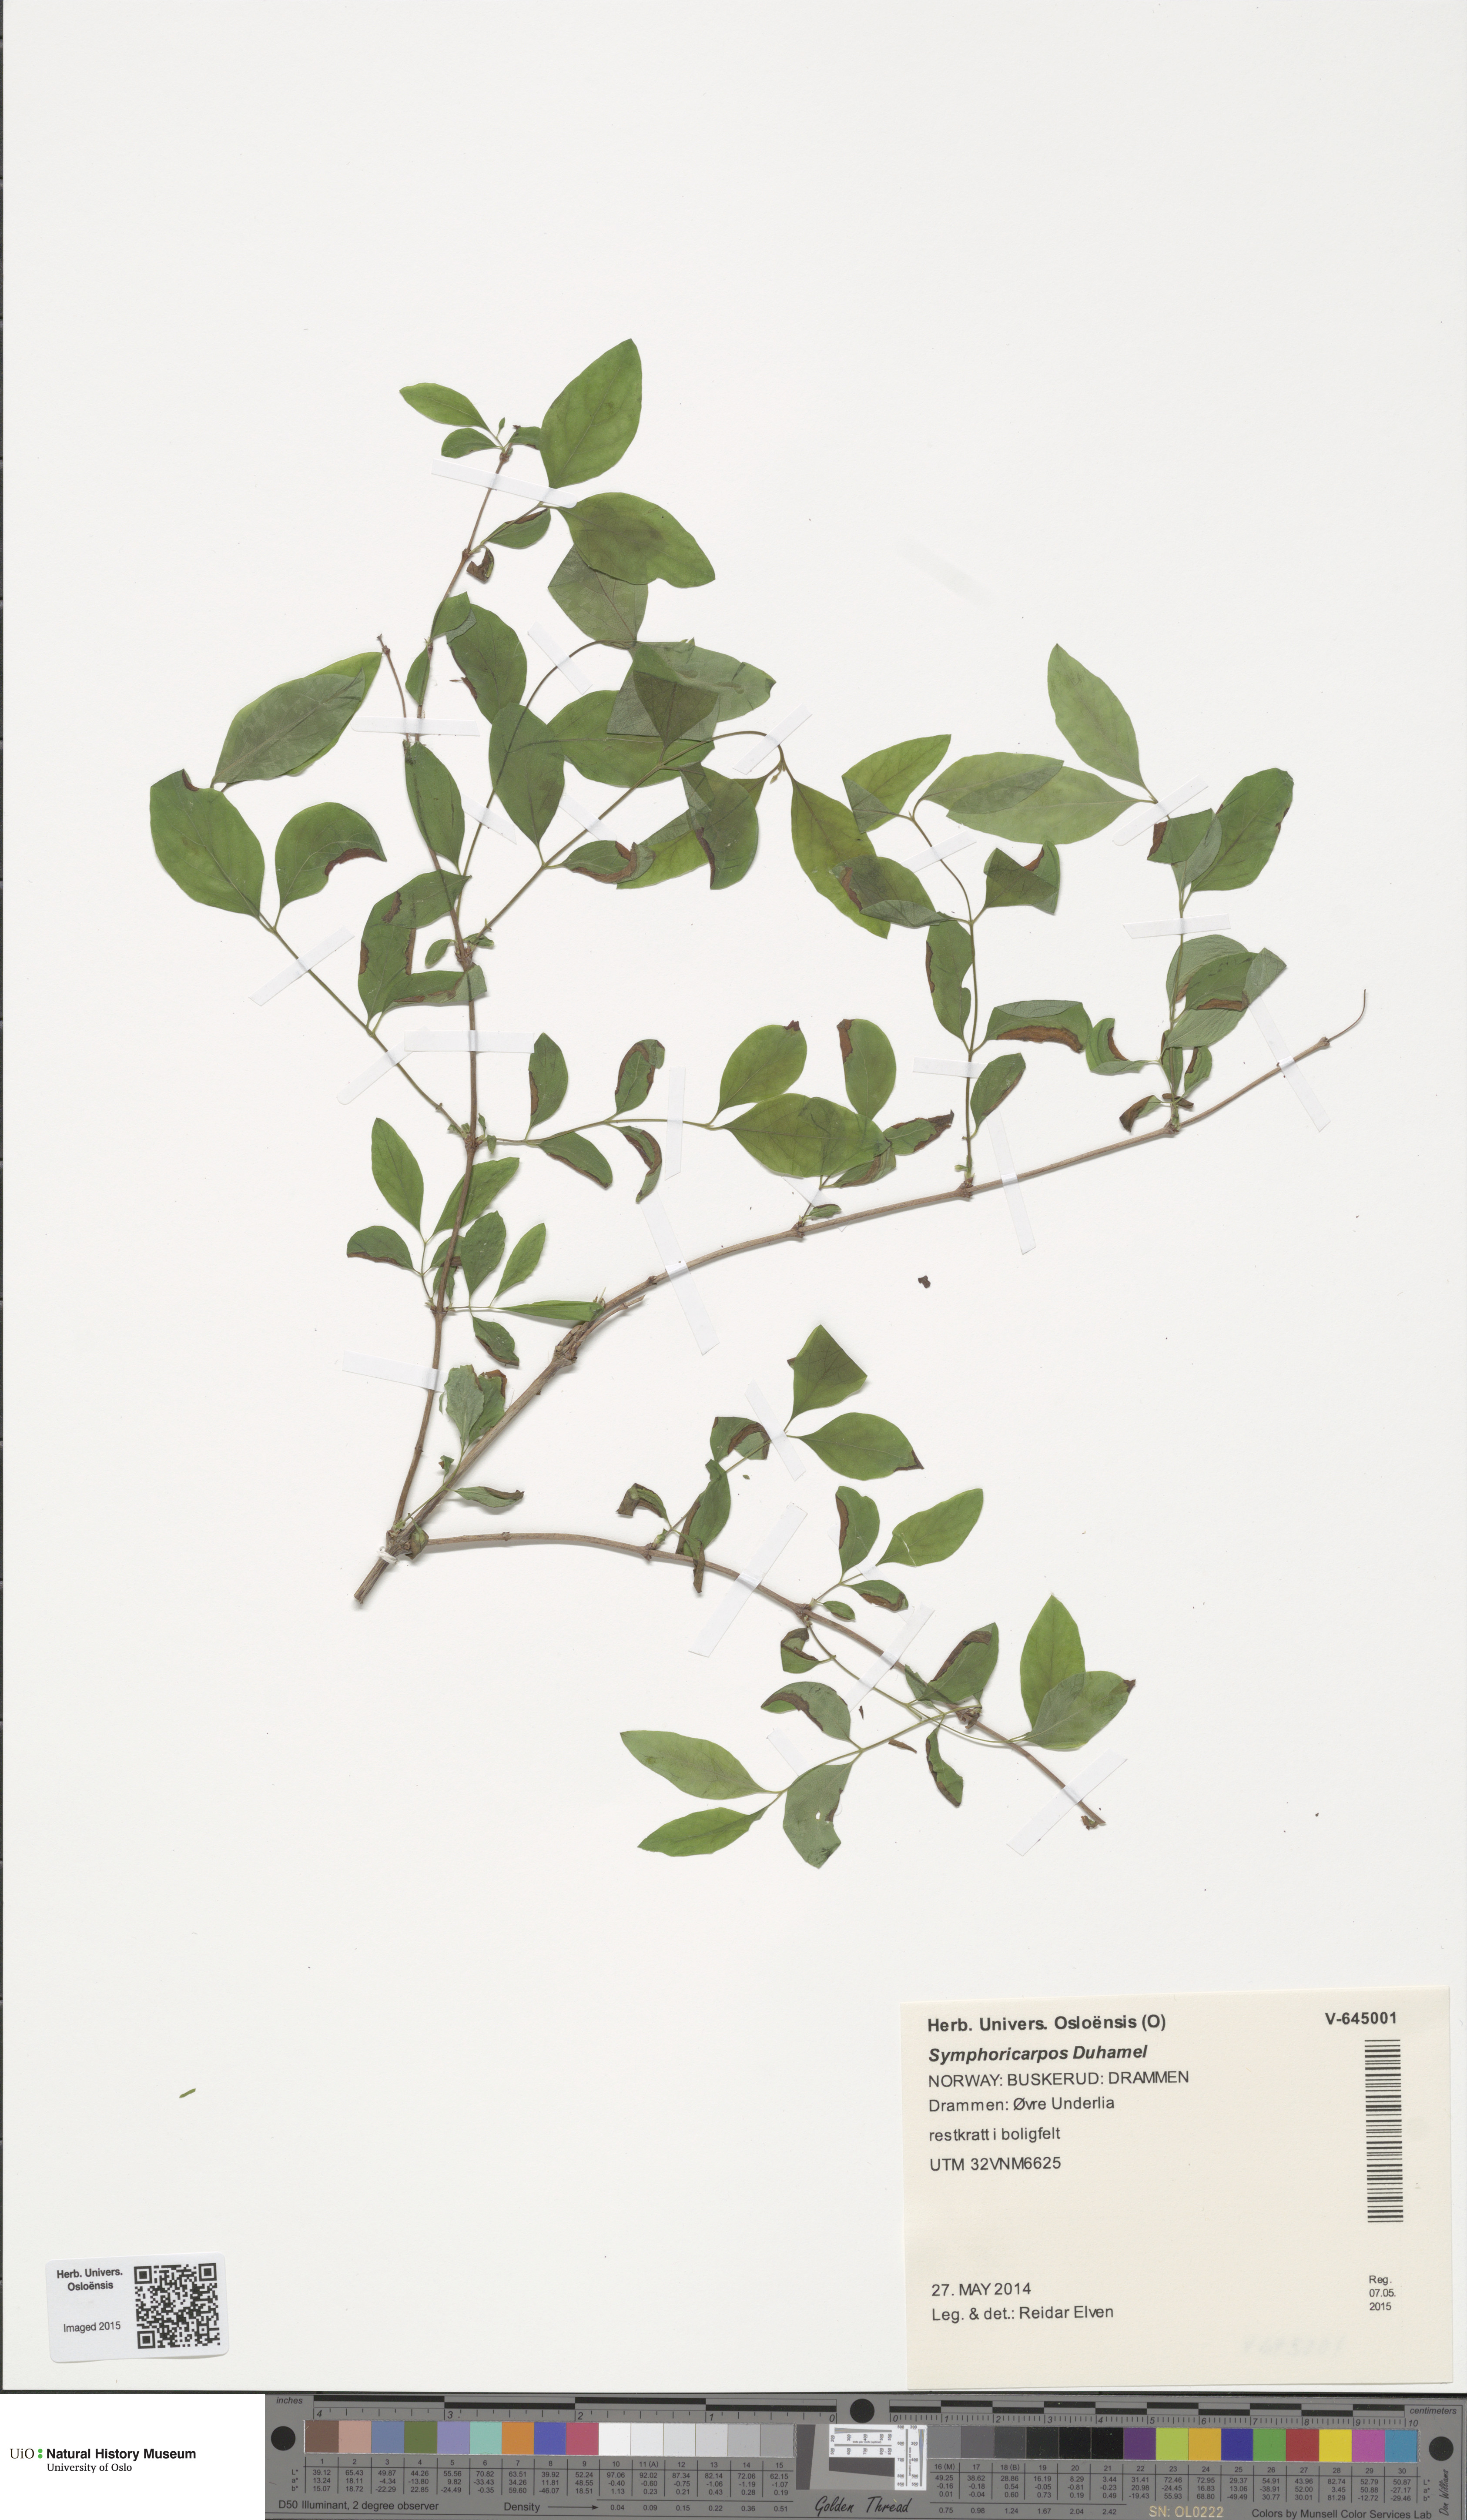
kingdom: Plantae
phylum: Tracheophyta
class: Magnoliopsida
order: Dipsacales
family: Caprifoliaceae
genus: Symphoricarpos
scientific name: Symphoricarpos
